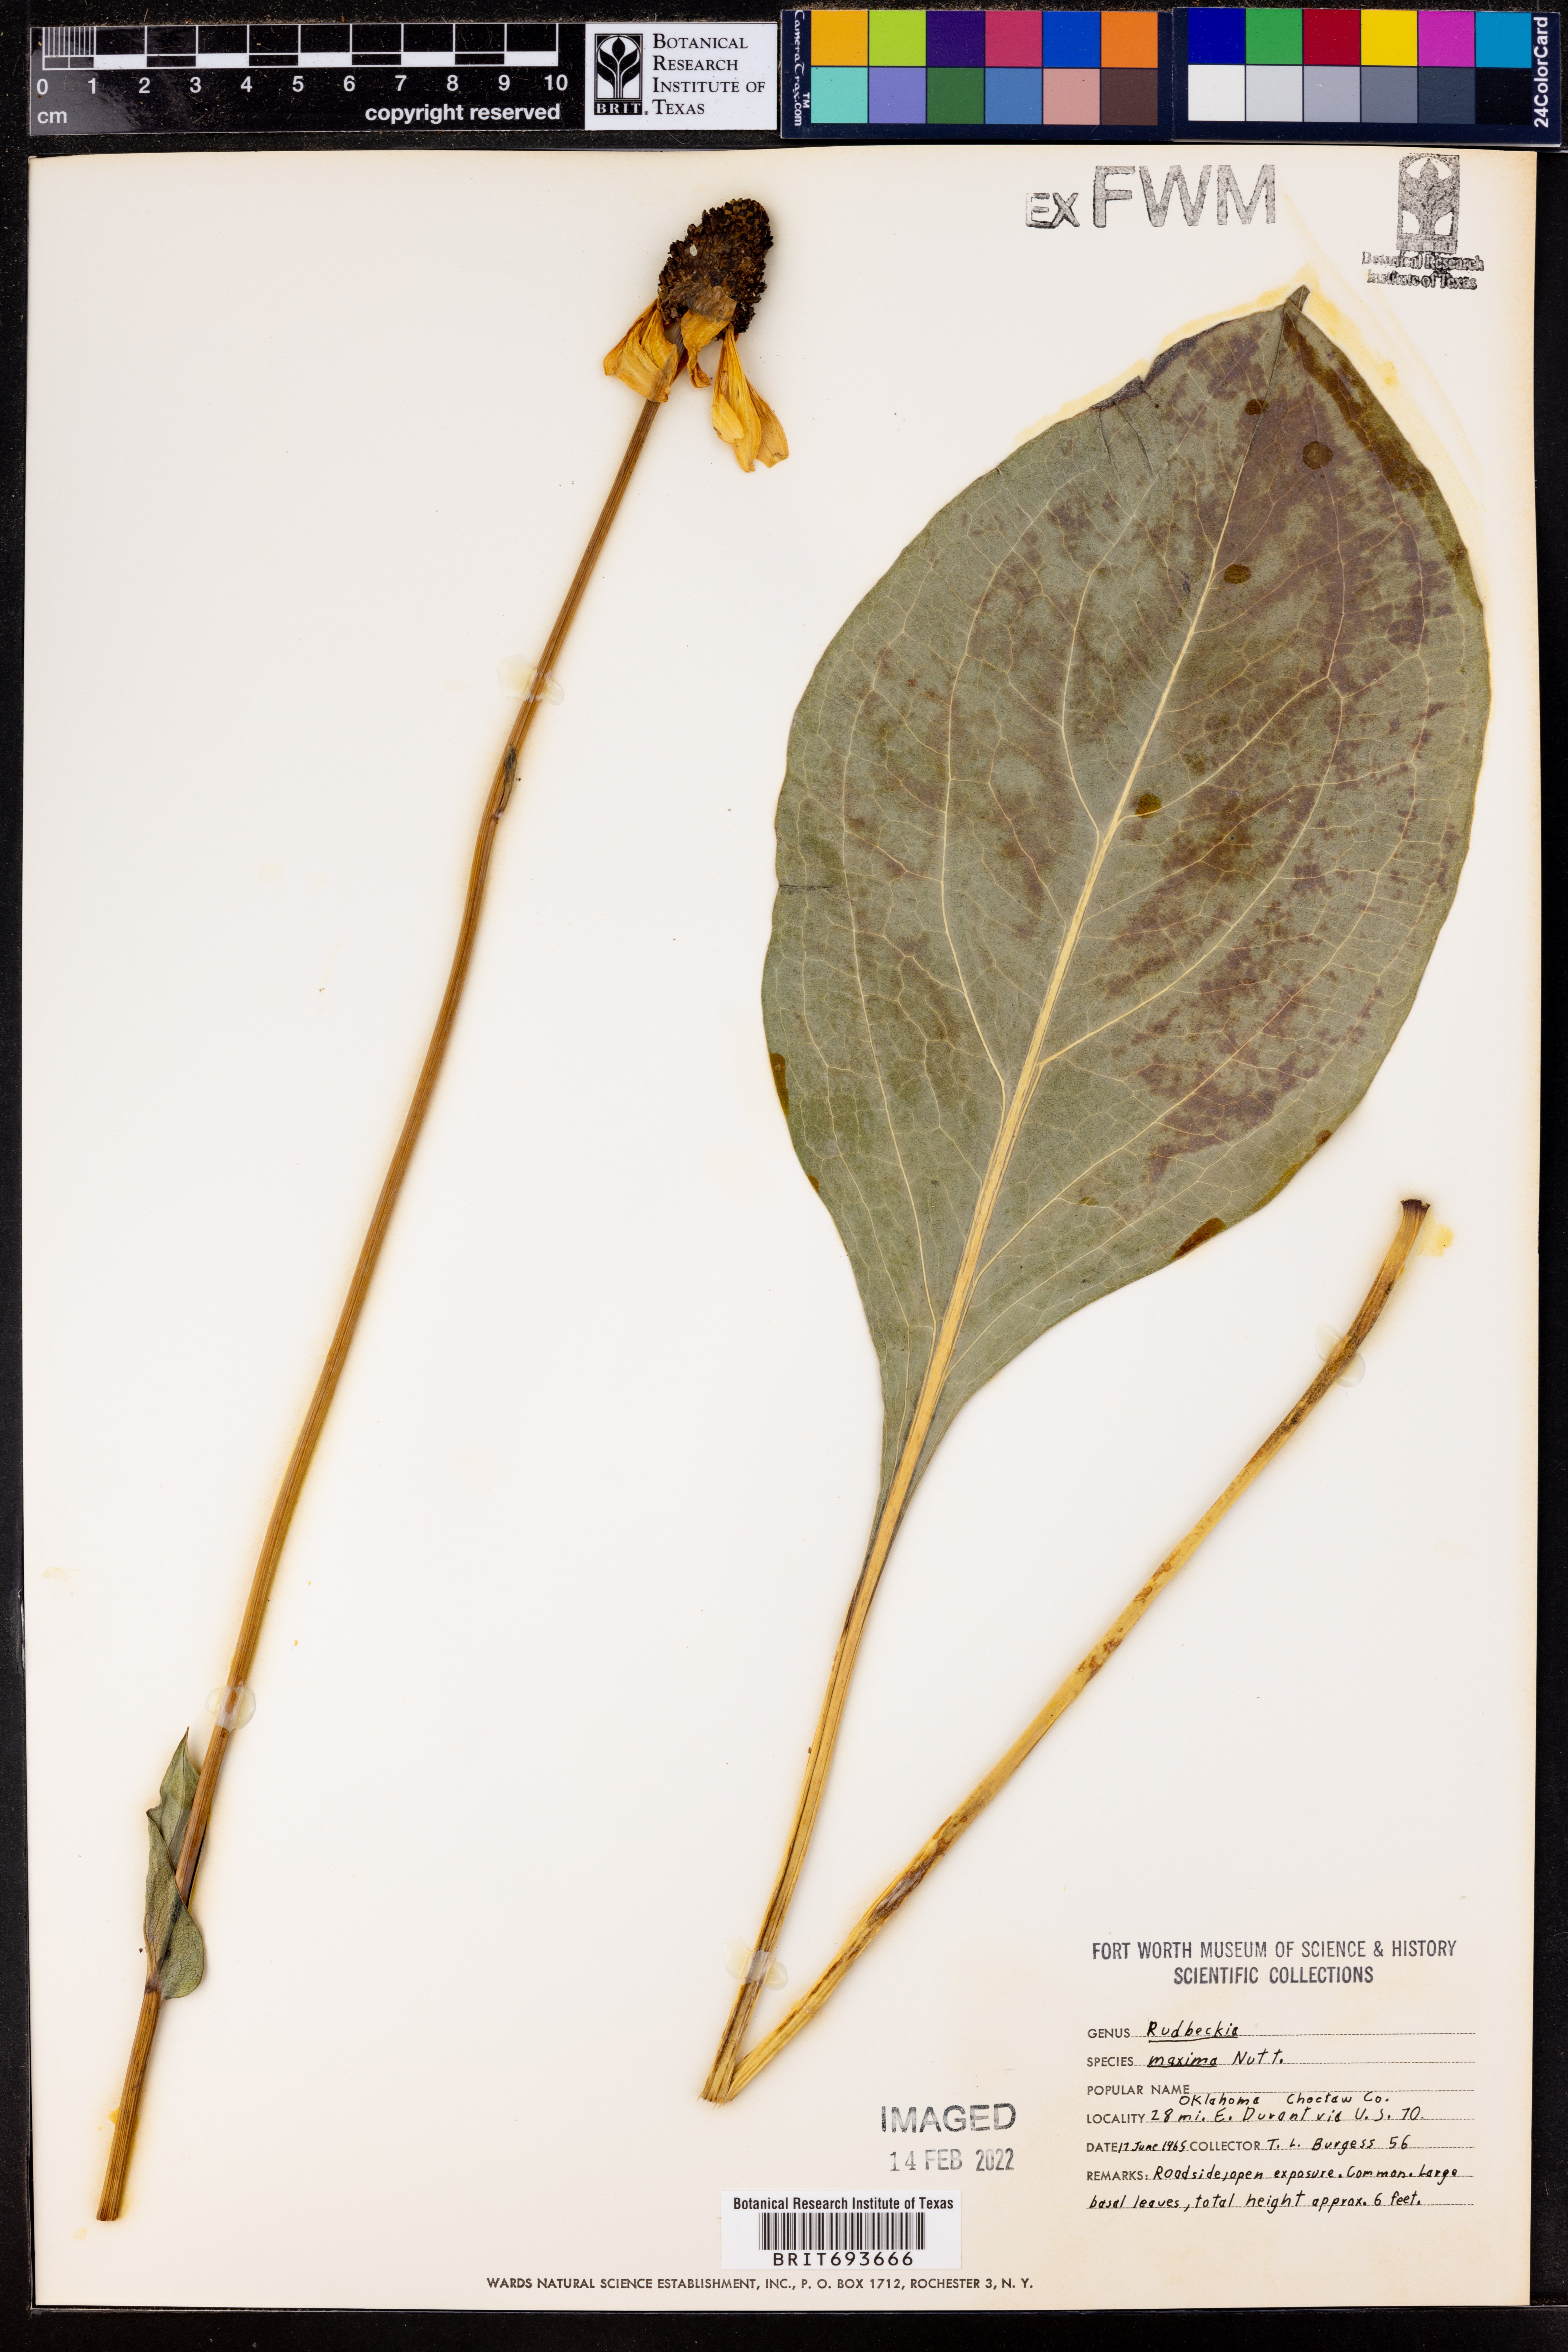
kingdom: Plantae
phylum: Tracheophyta
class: Magnoliopsida
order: Asterales
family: Asteraceae
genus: Rudbeckia
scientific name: Rudbeckia maxima
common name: Cabbage coneflower
